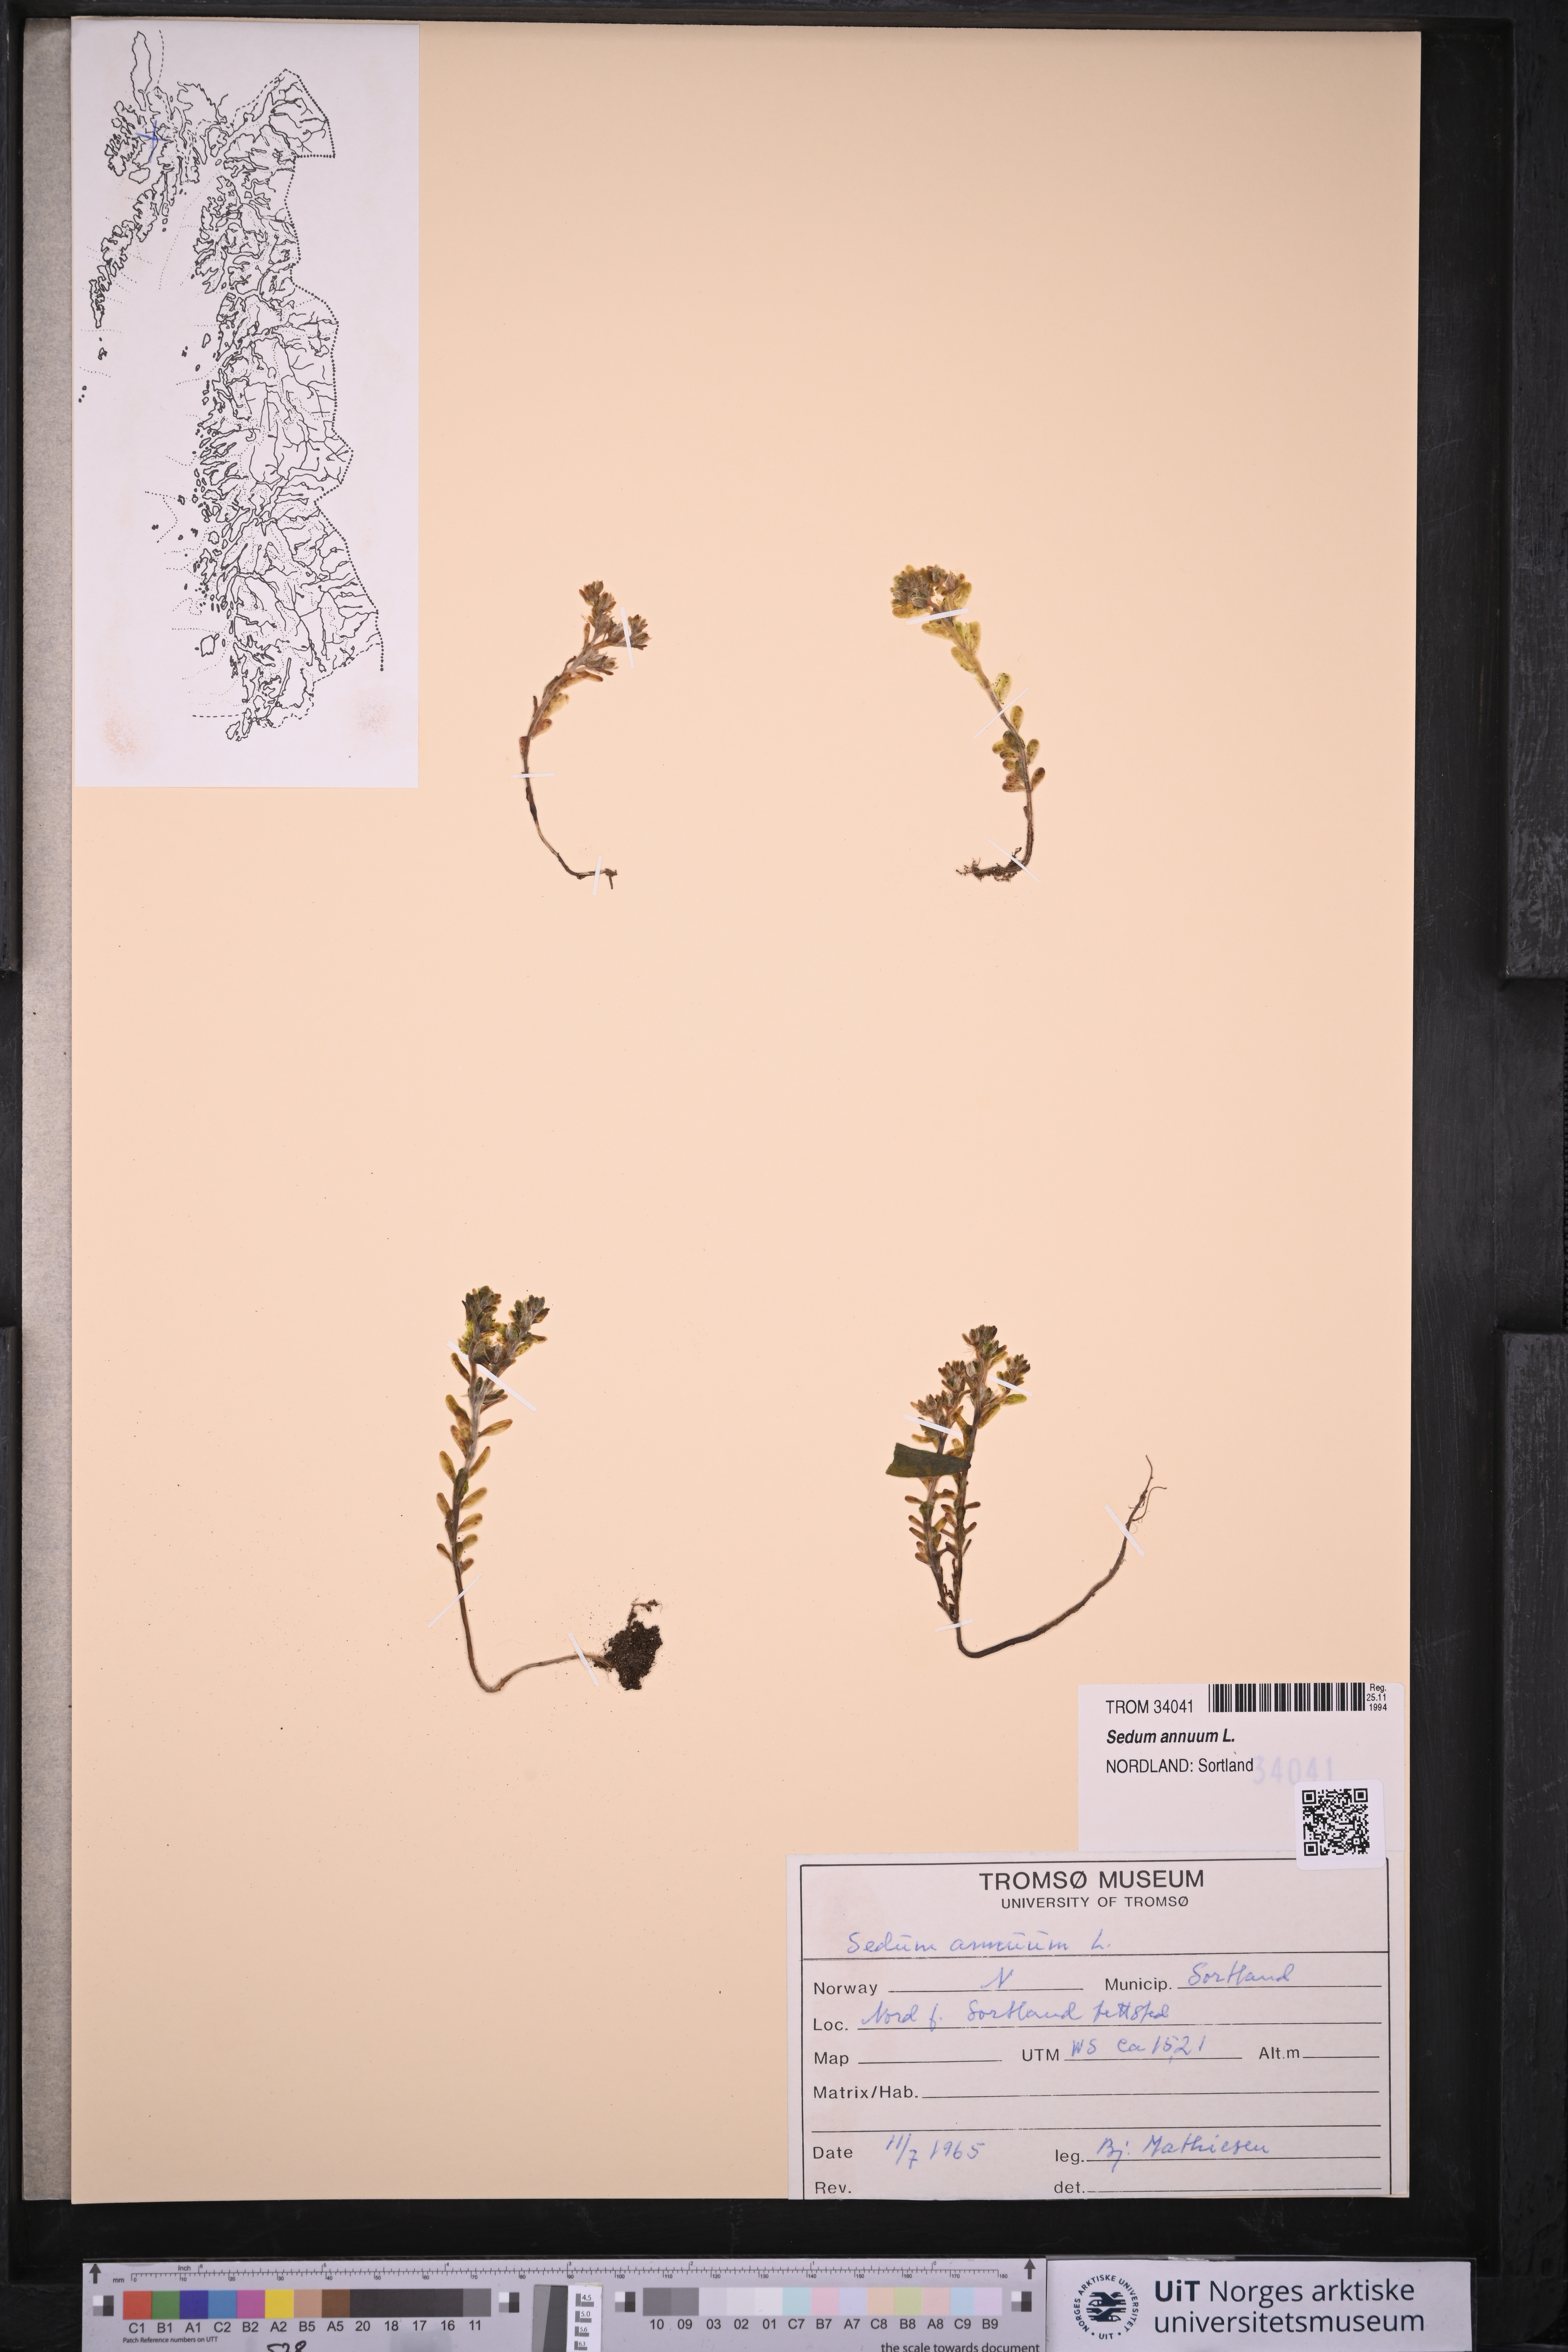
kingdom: Plantae
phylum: Tracheophyta
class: Magnoliopsida
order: Saxifragales
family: Crassulaceae
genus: Sedum
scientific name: Sedum annuum
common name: Annual stonecrop
